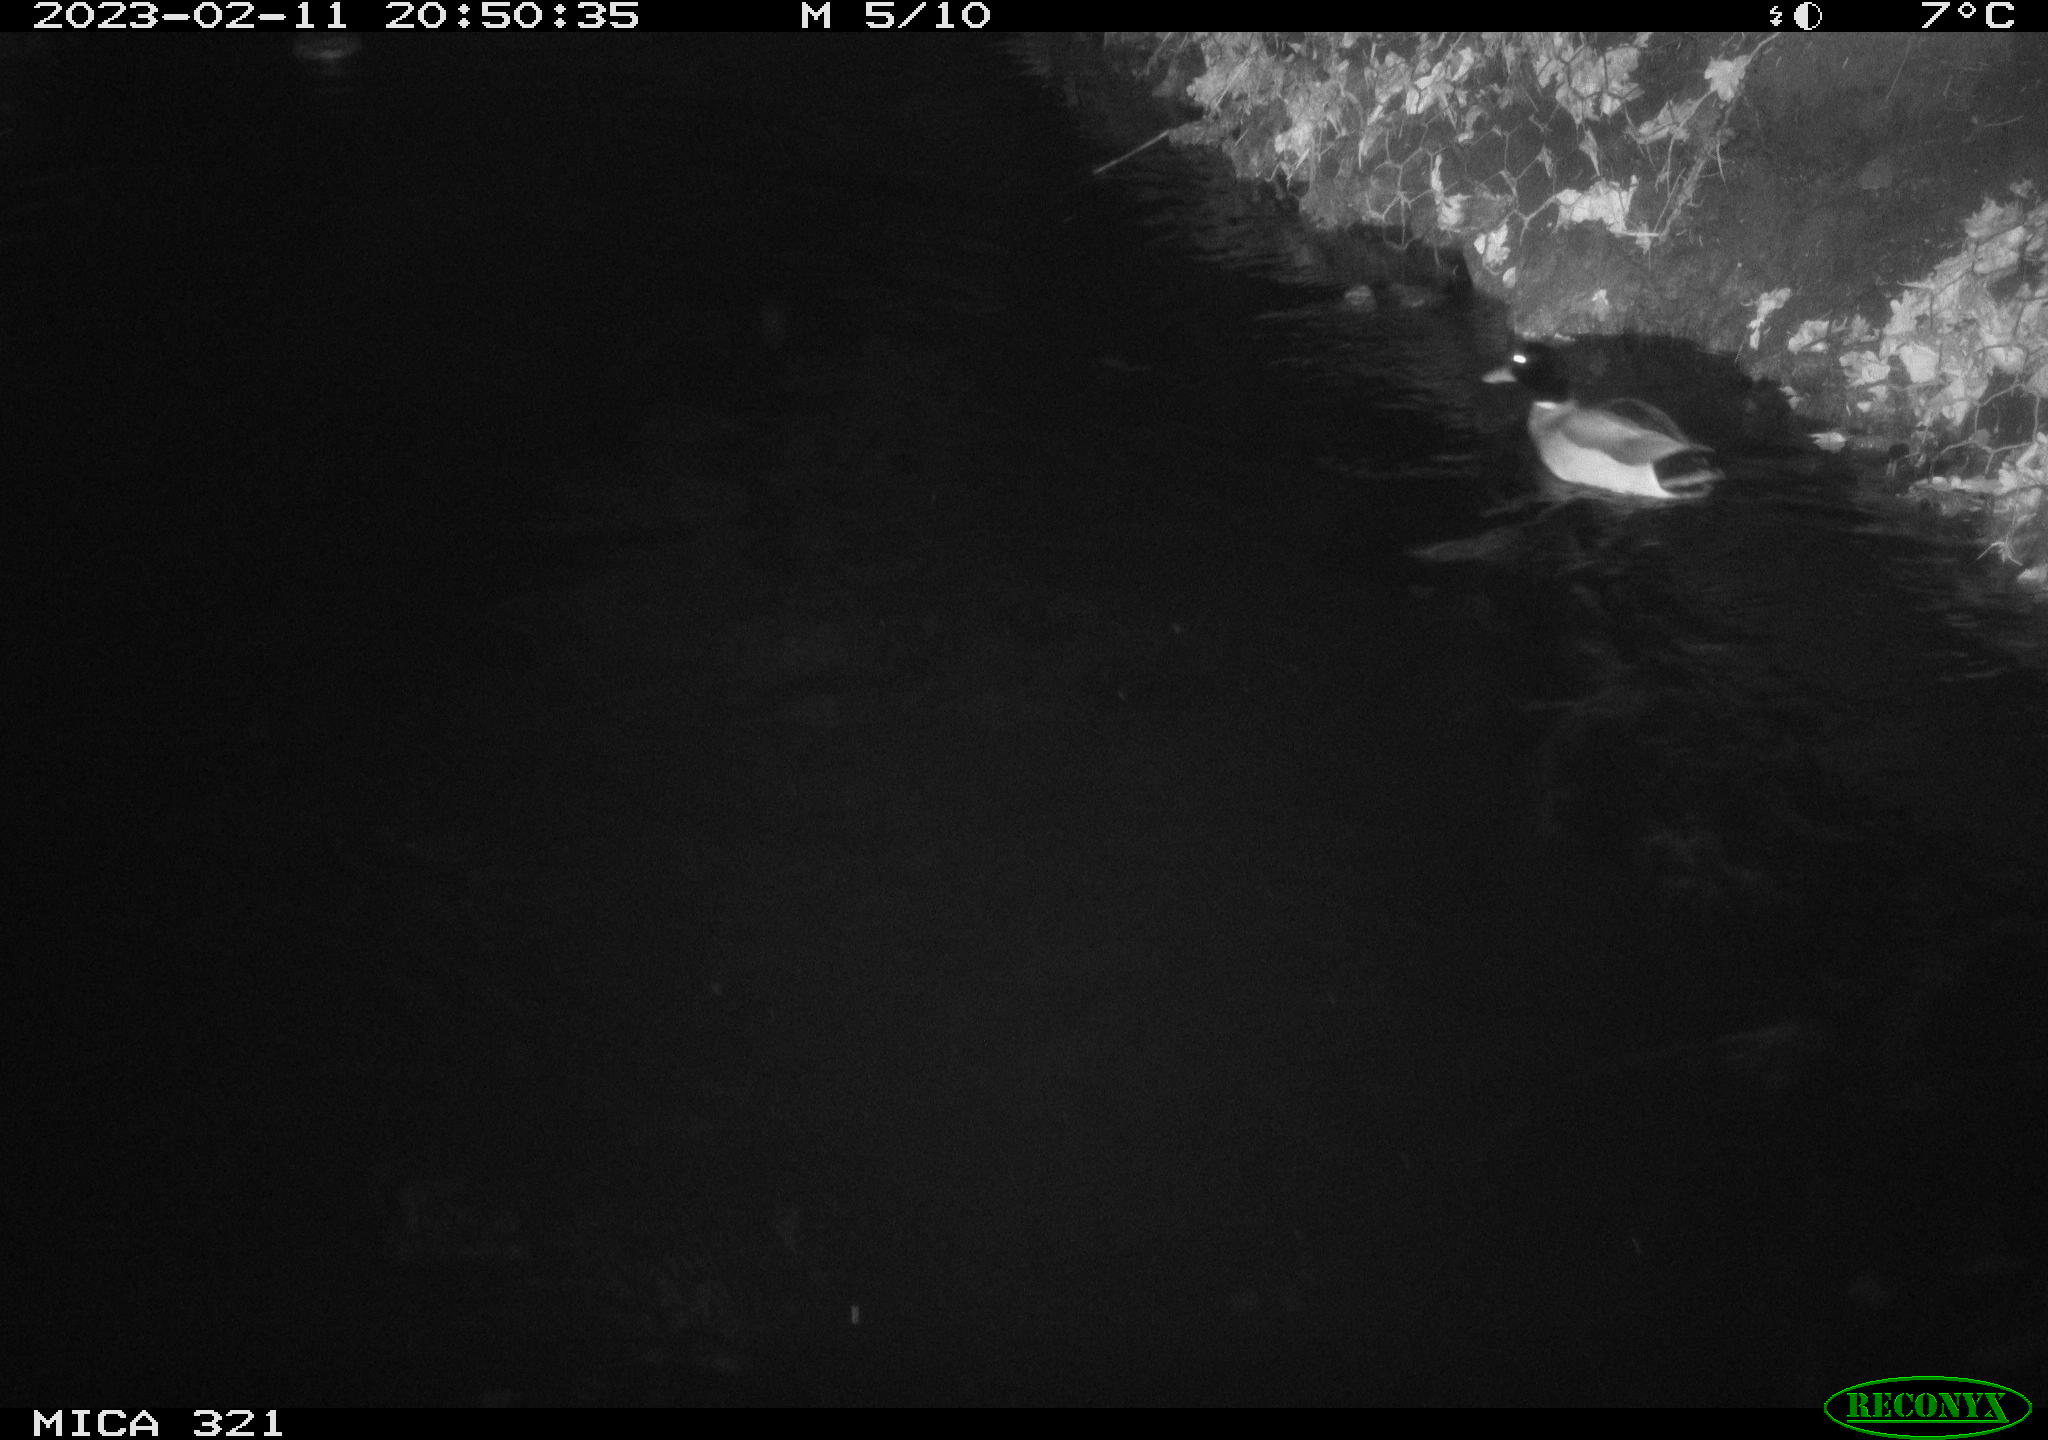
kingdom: Animalia
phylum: Chordata
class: Aves
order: Anseriformes
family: Anatidae
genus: Anas
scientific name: Anas
